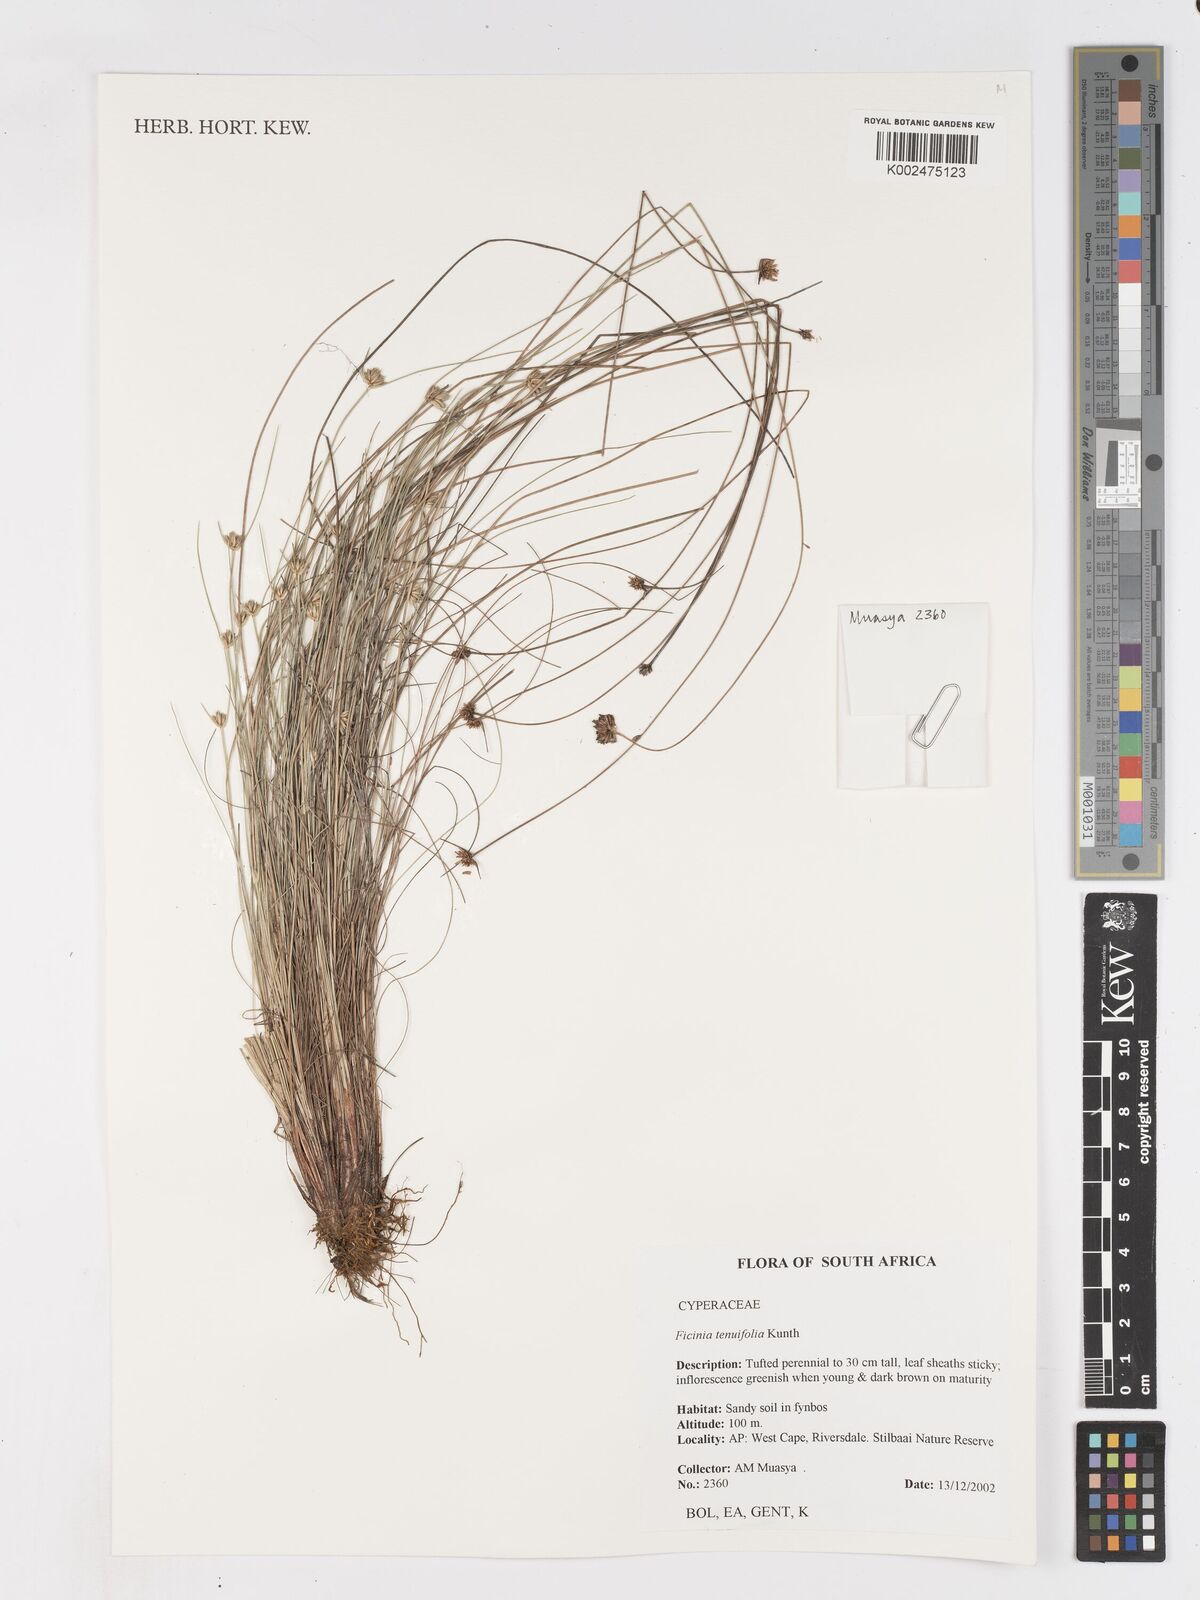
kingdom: Plantae
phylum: Tracheophyta
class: Liliopsida
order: Poales
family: Cyperaceae
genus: Ficinia
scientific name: Ficinia filiformis
